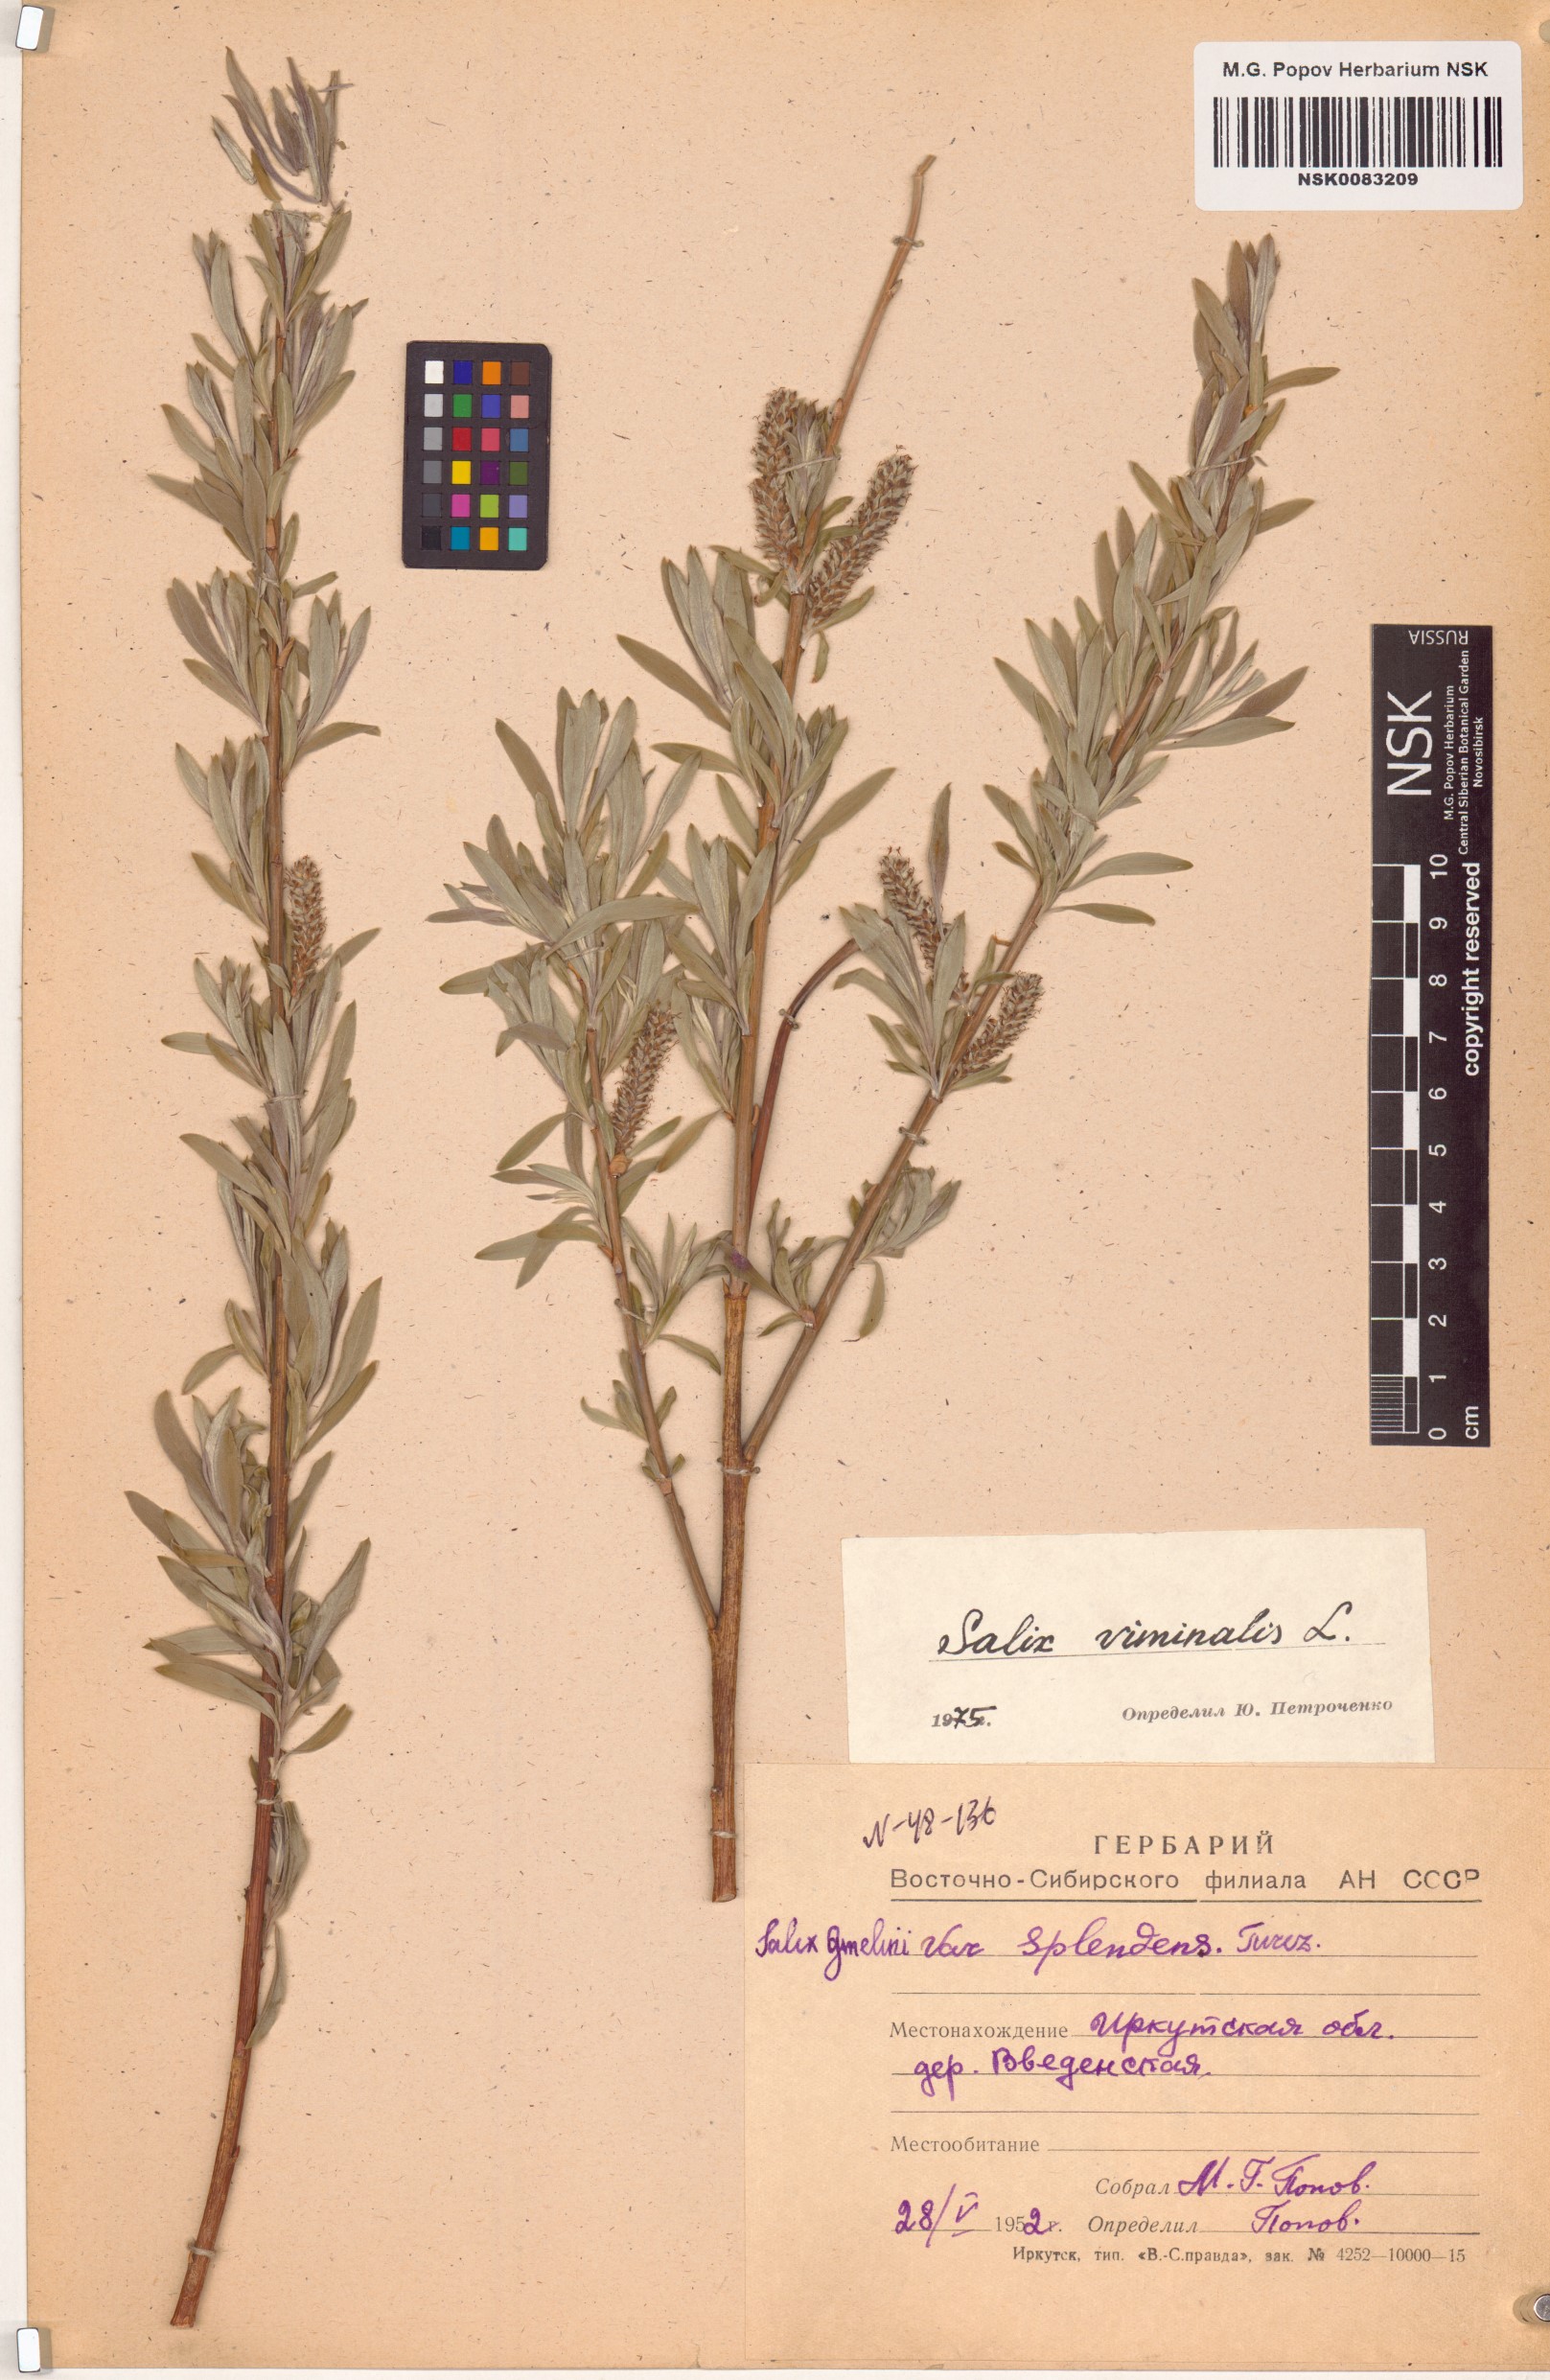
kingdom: Plantae
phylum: Tracheophyta
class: Magnoliopsida
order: Malpighiales
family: Salicaceae
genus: Salix
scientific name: Salix viminalis
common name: Osier
